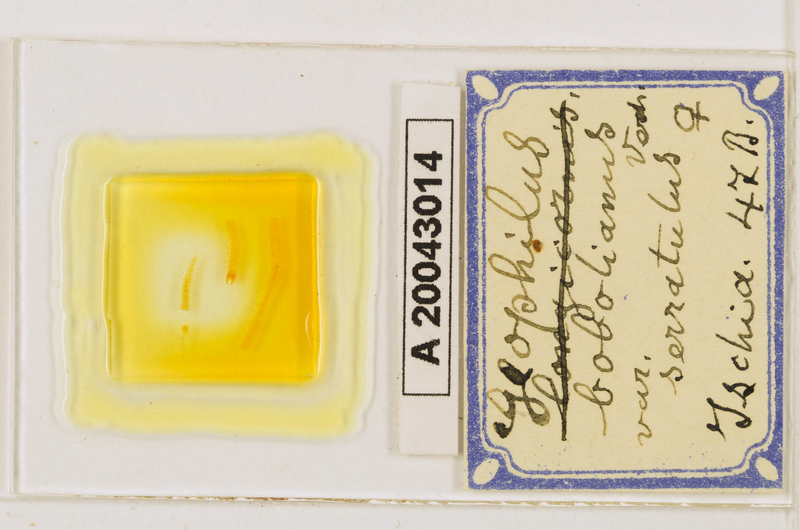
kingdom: Animalia
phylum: Arthropoda
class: Chilopoda
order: Geophilomorpha
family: Geophilidae
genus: Geophilus
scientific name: Geophilus bobolianus
